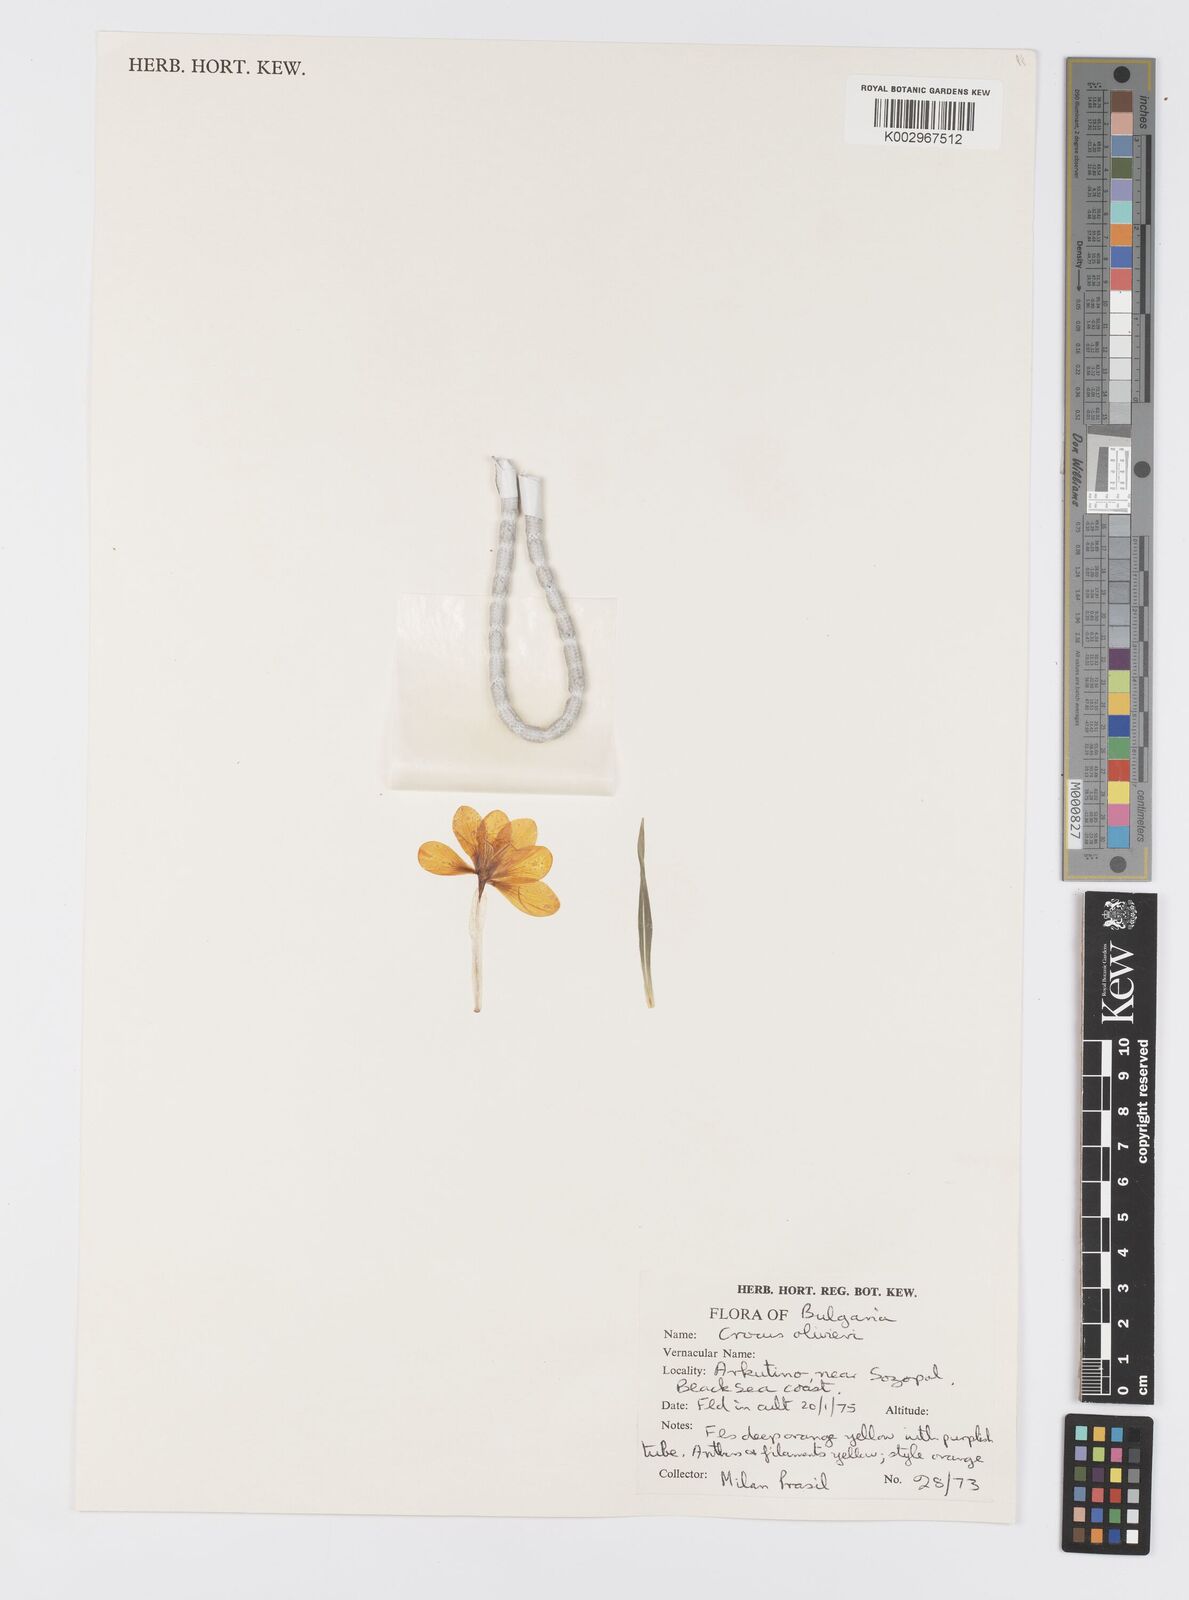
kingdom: Plantae
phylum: Tracheophyta
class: Liliopsida
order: Asparagales
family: Iridaceae
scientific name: Iridaceae
